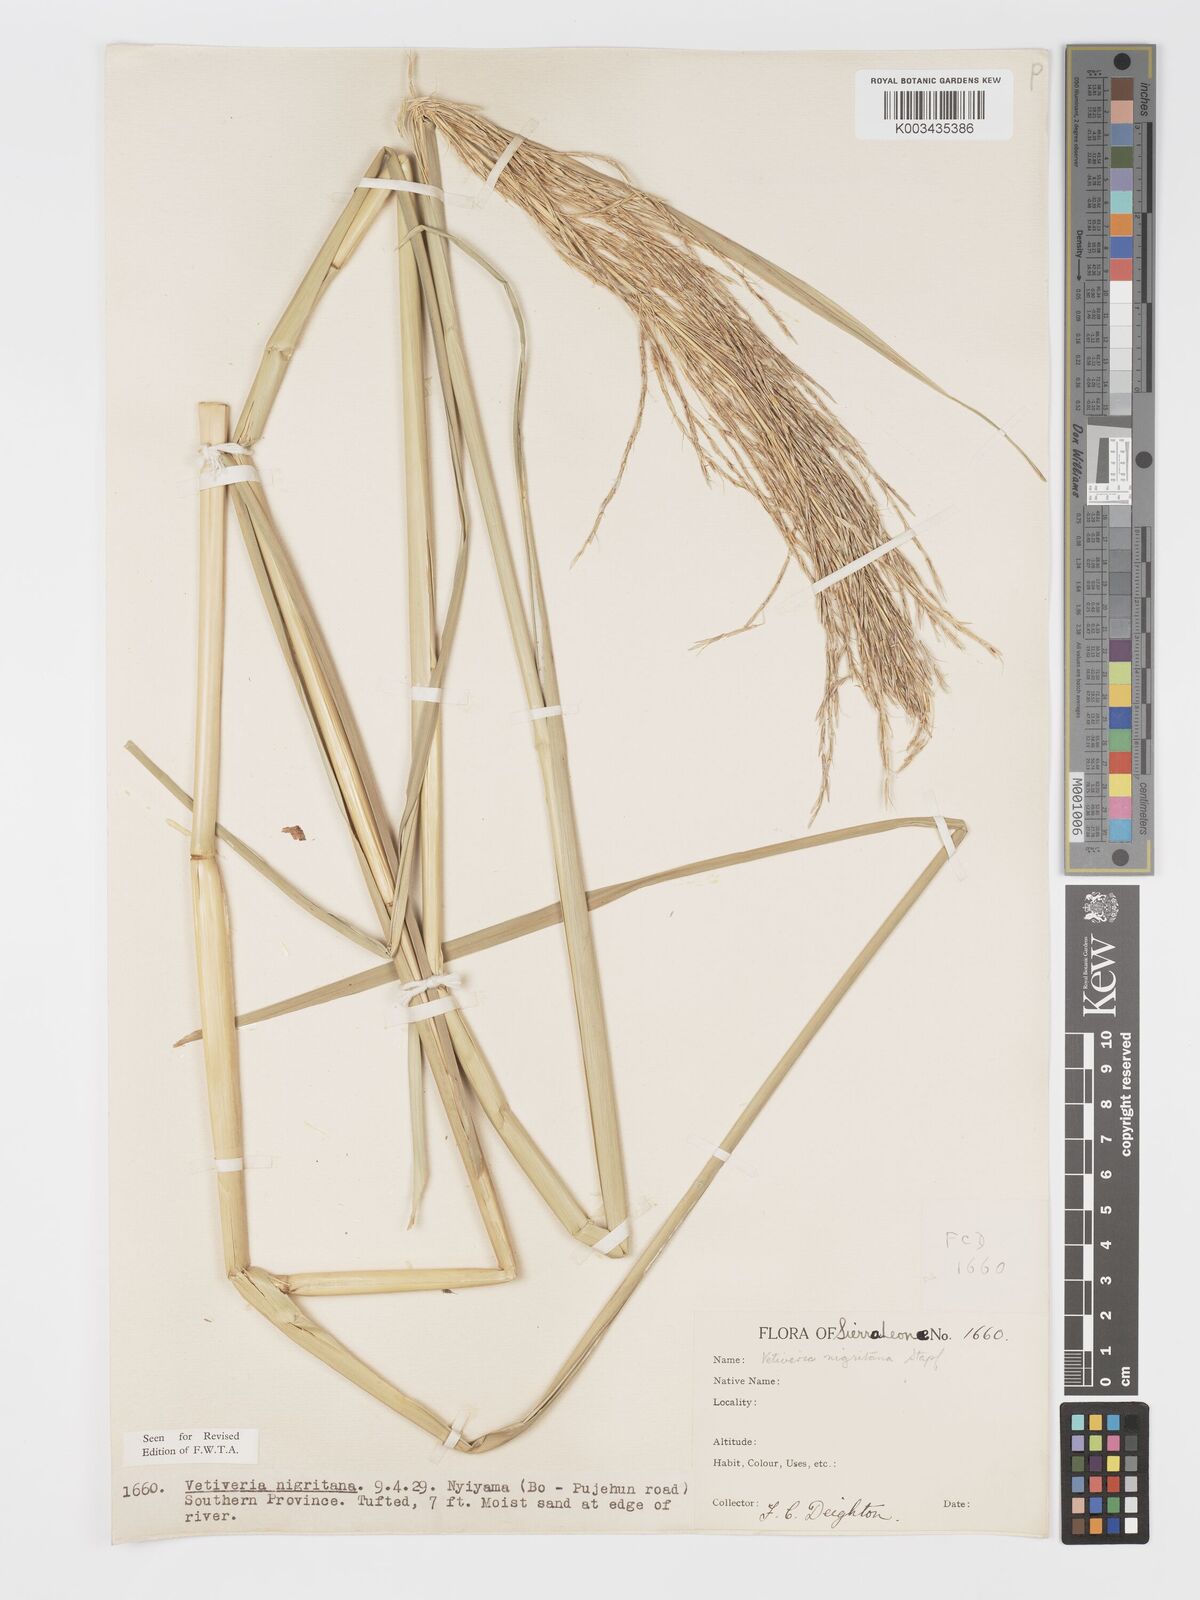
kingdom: Plantae
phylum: Tracheophyta
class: Liliopsida
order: Poales
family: Poaceae
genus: Chrysopogon
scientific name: Chrysopogon nigritanus
